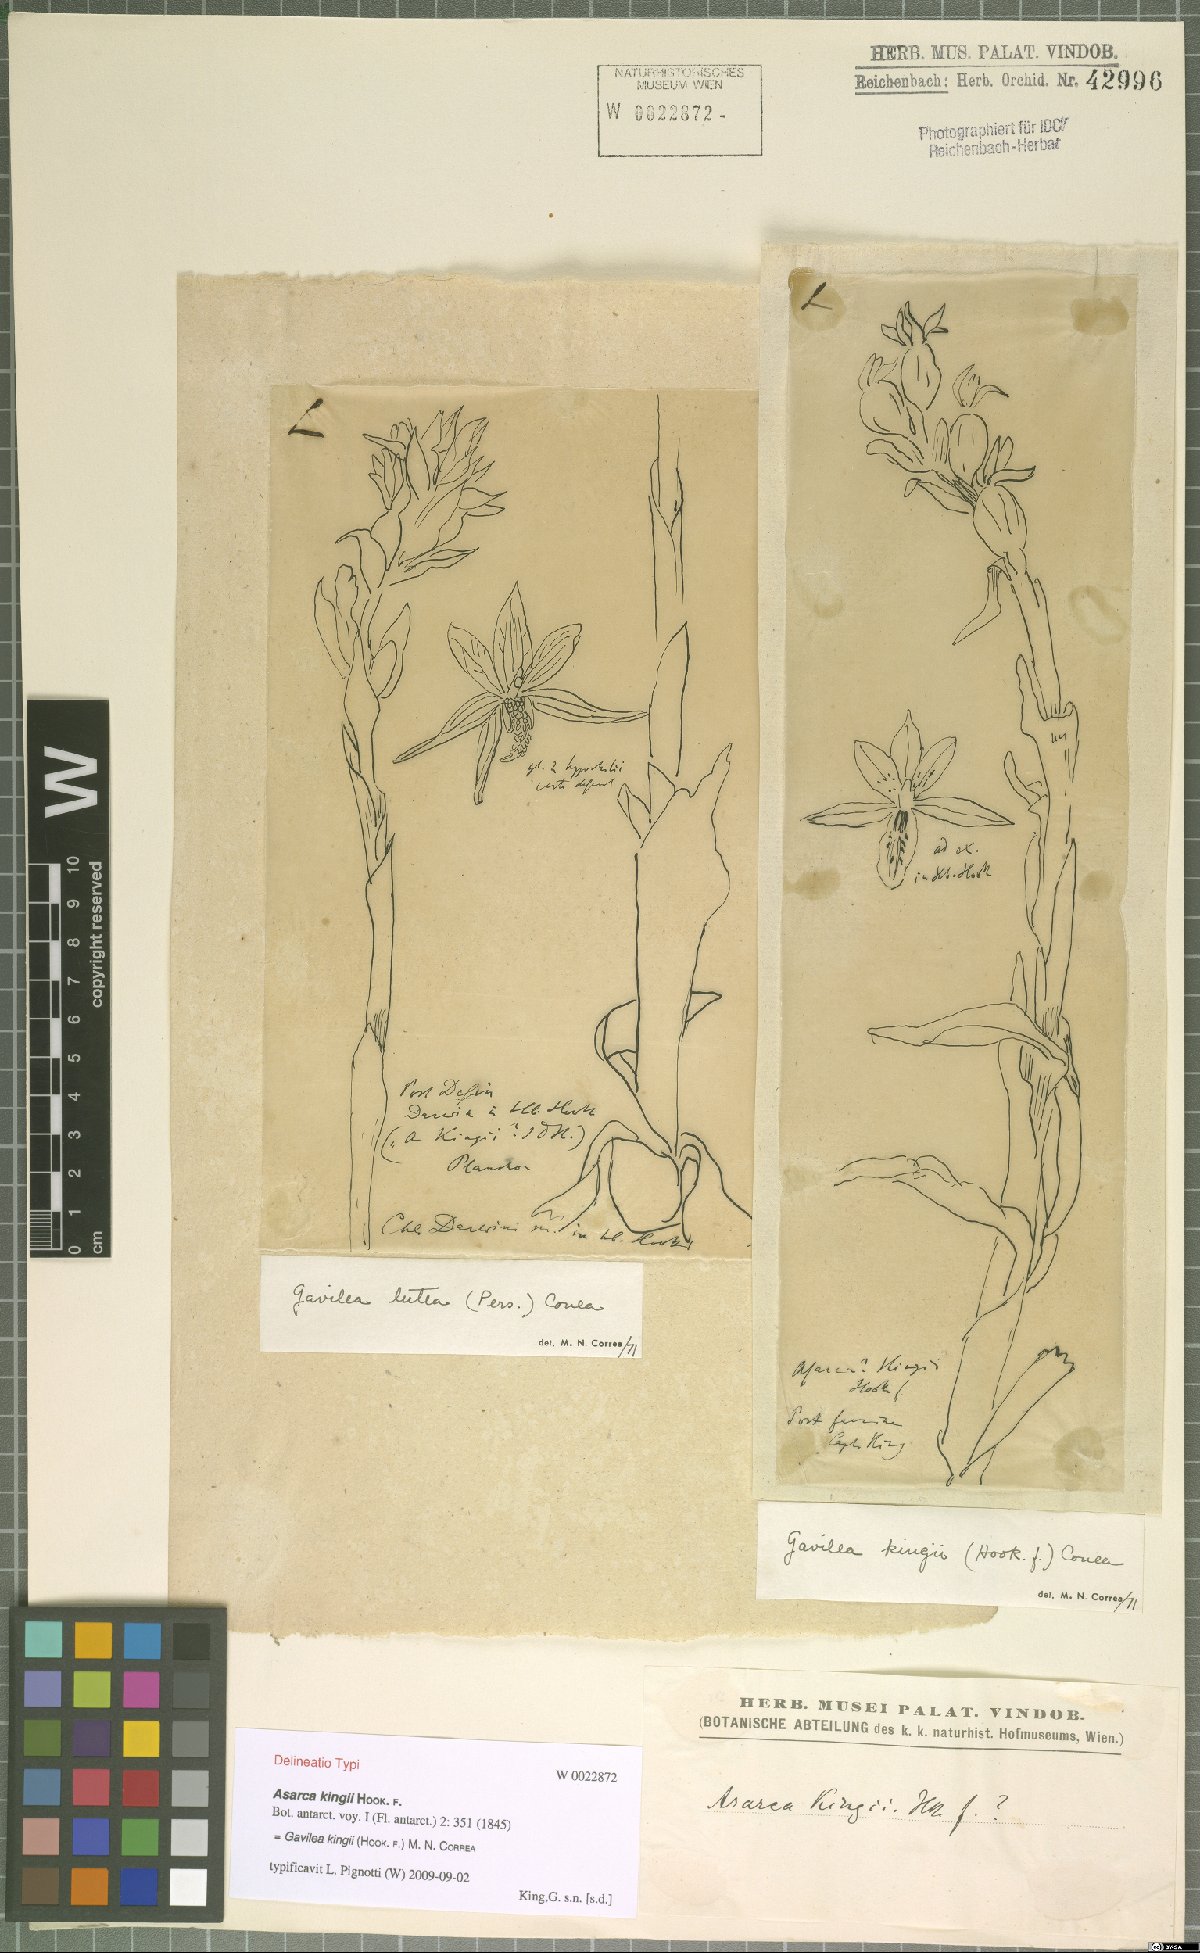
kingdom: Plantae
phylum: Tracheophyta
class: Liliopsida
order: Asparagales
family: Orchidaceae
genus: Gavilea
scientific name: Gavilea kingii
